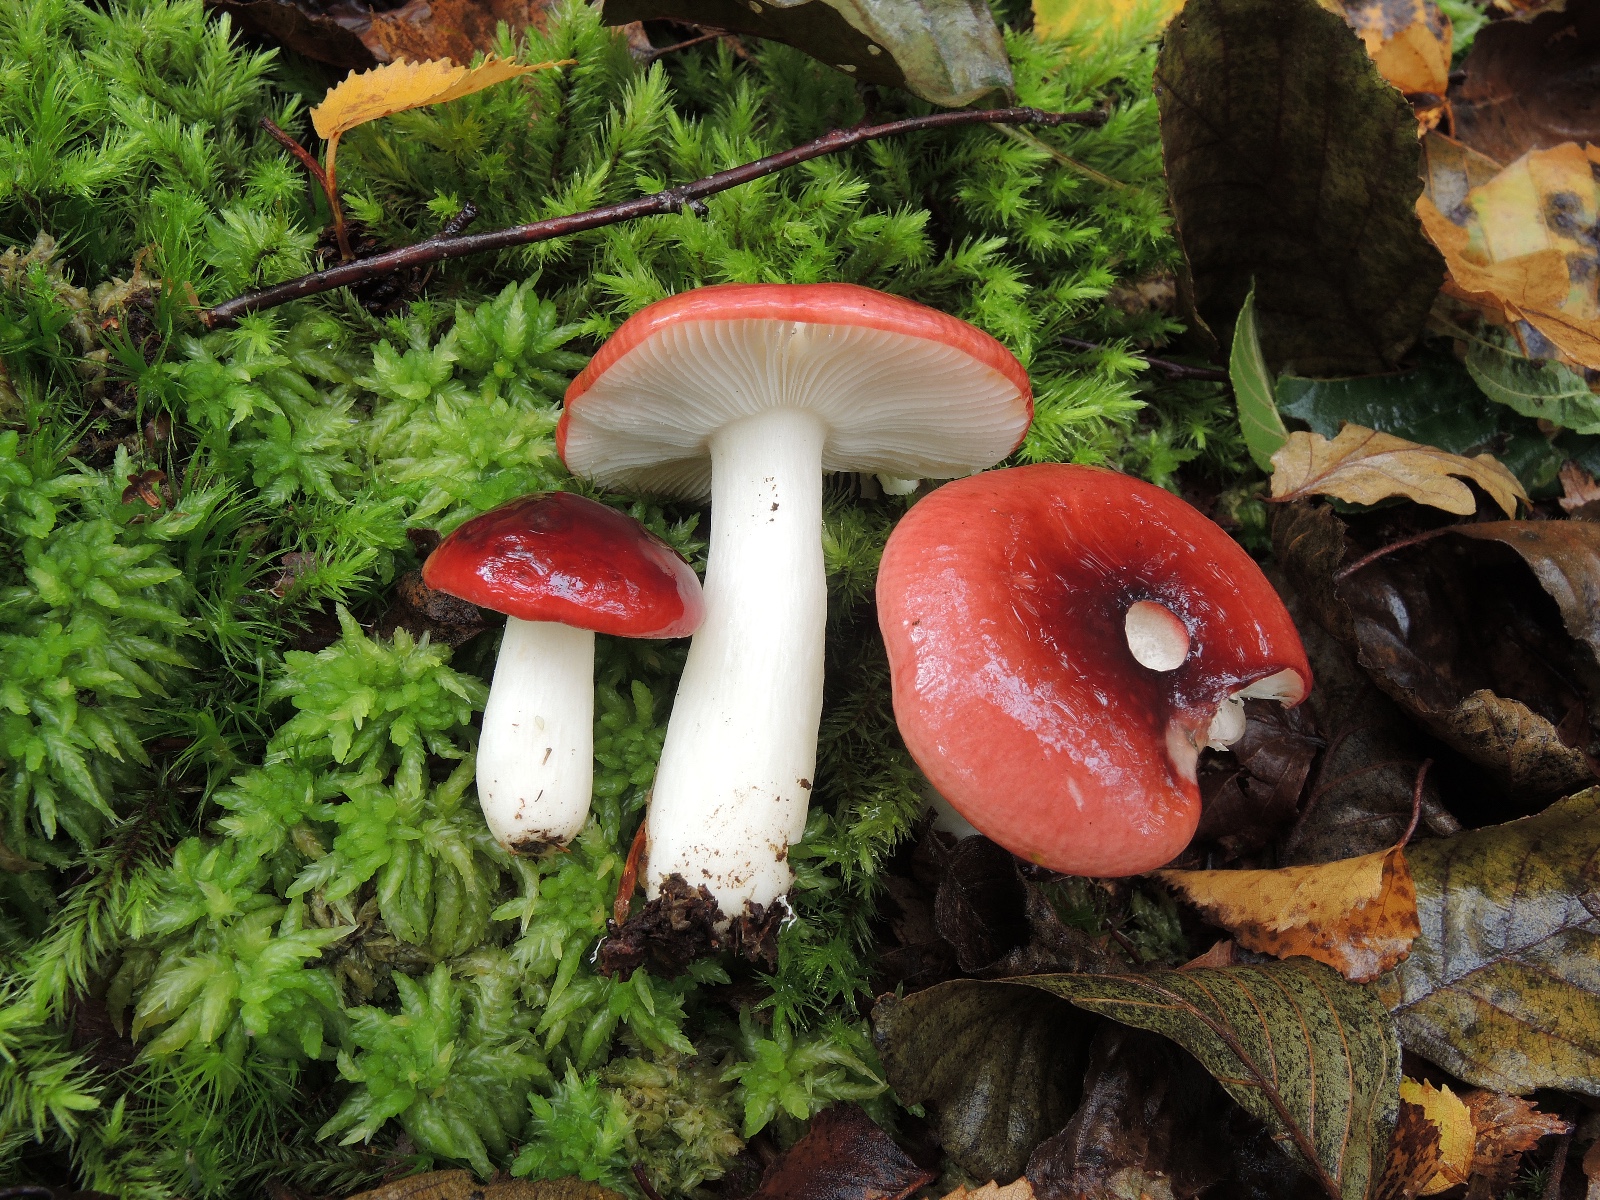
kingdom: Fungi
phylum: Basidiomycota
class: Agaricomycetes
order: Russulales
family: Russulaceae
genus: Russula
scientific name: Russula aquosa
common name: vand-skørhat
